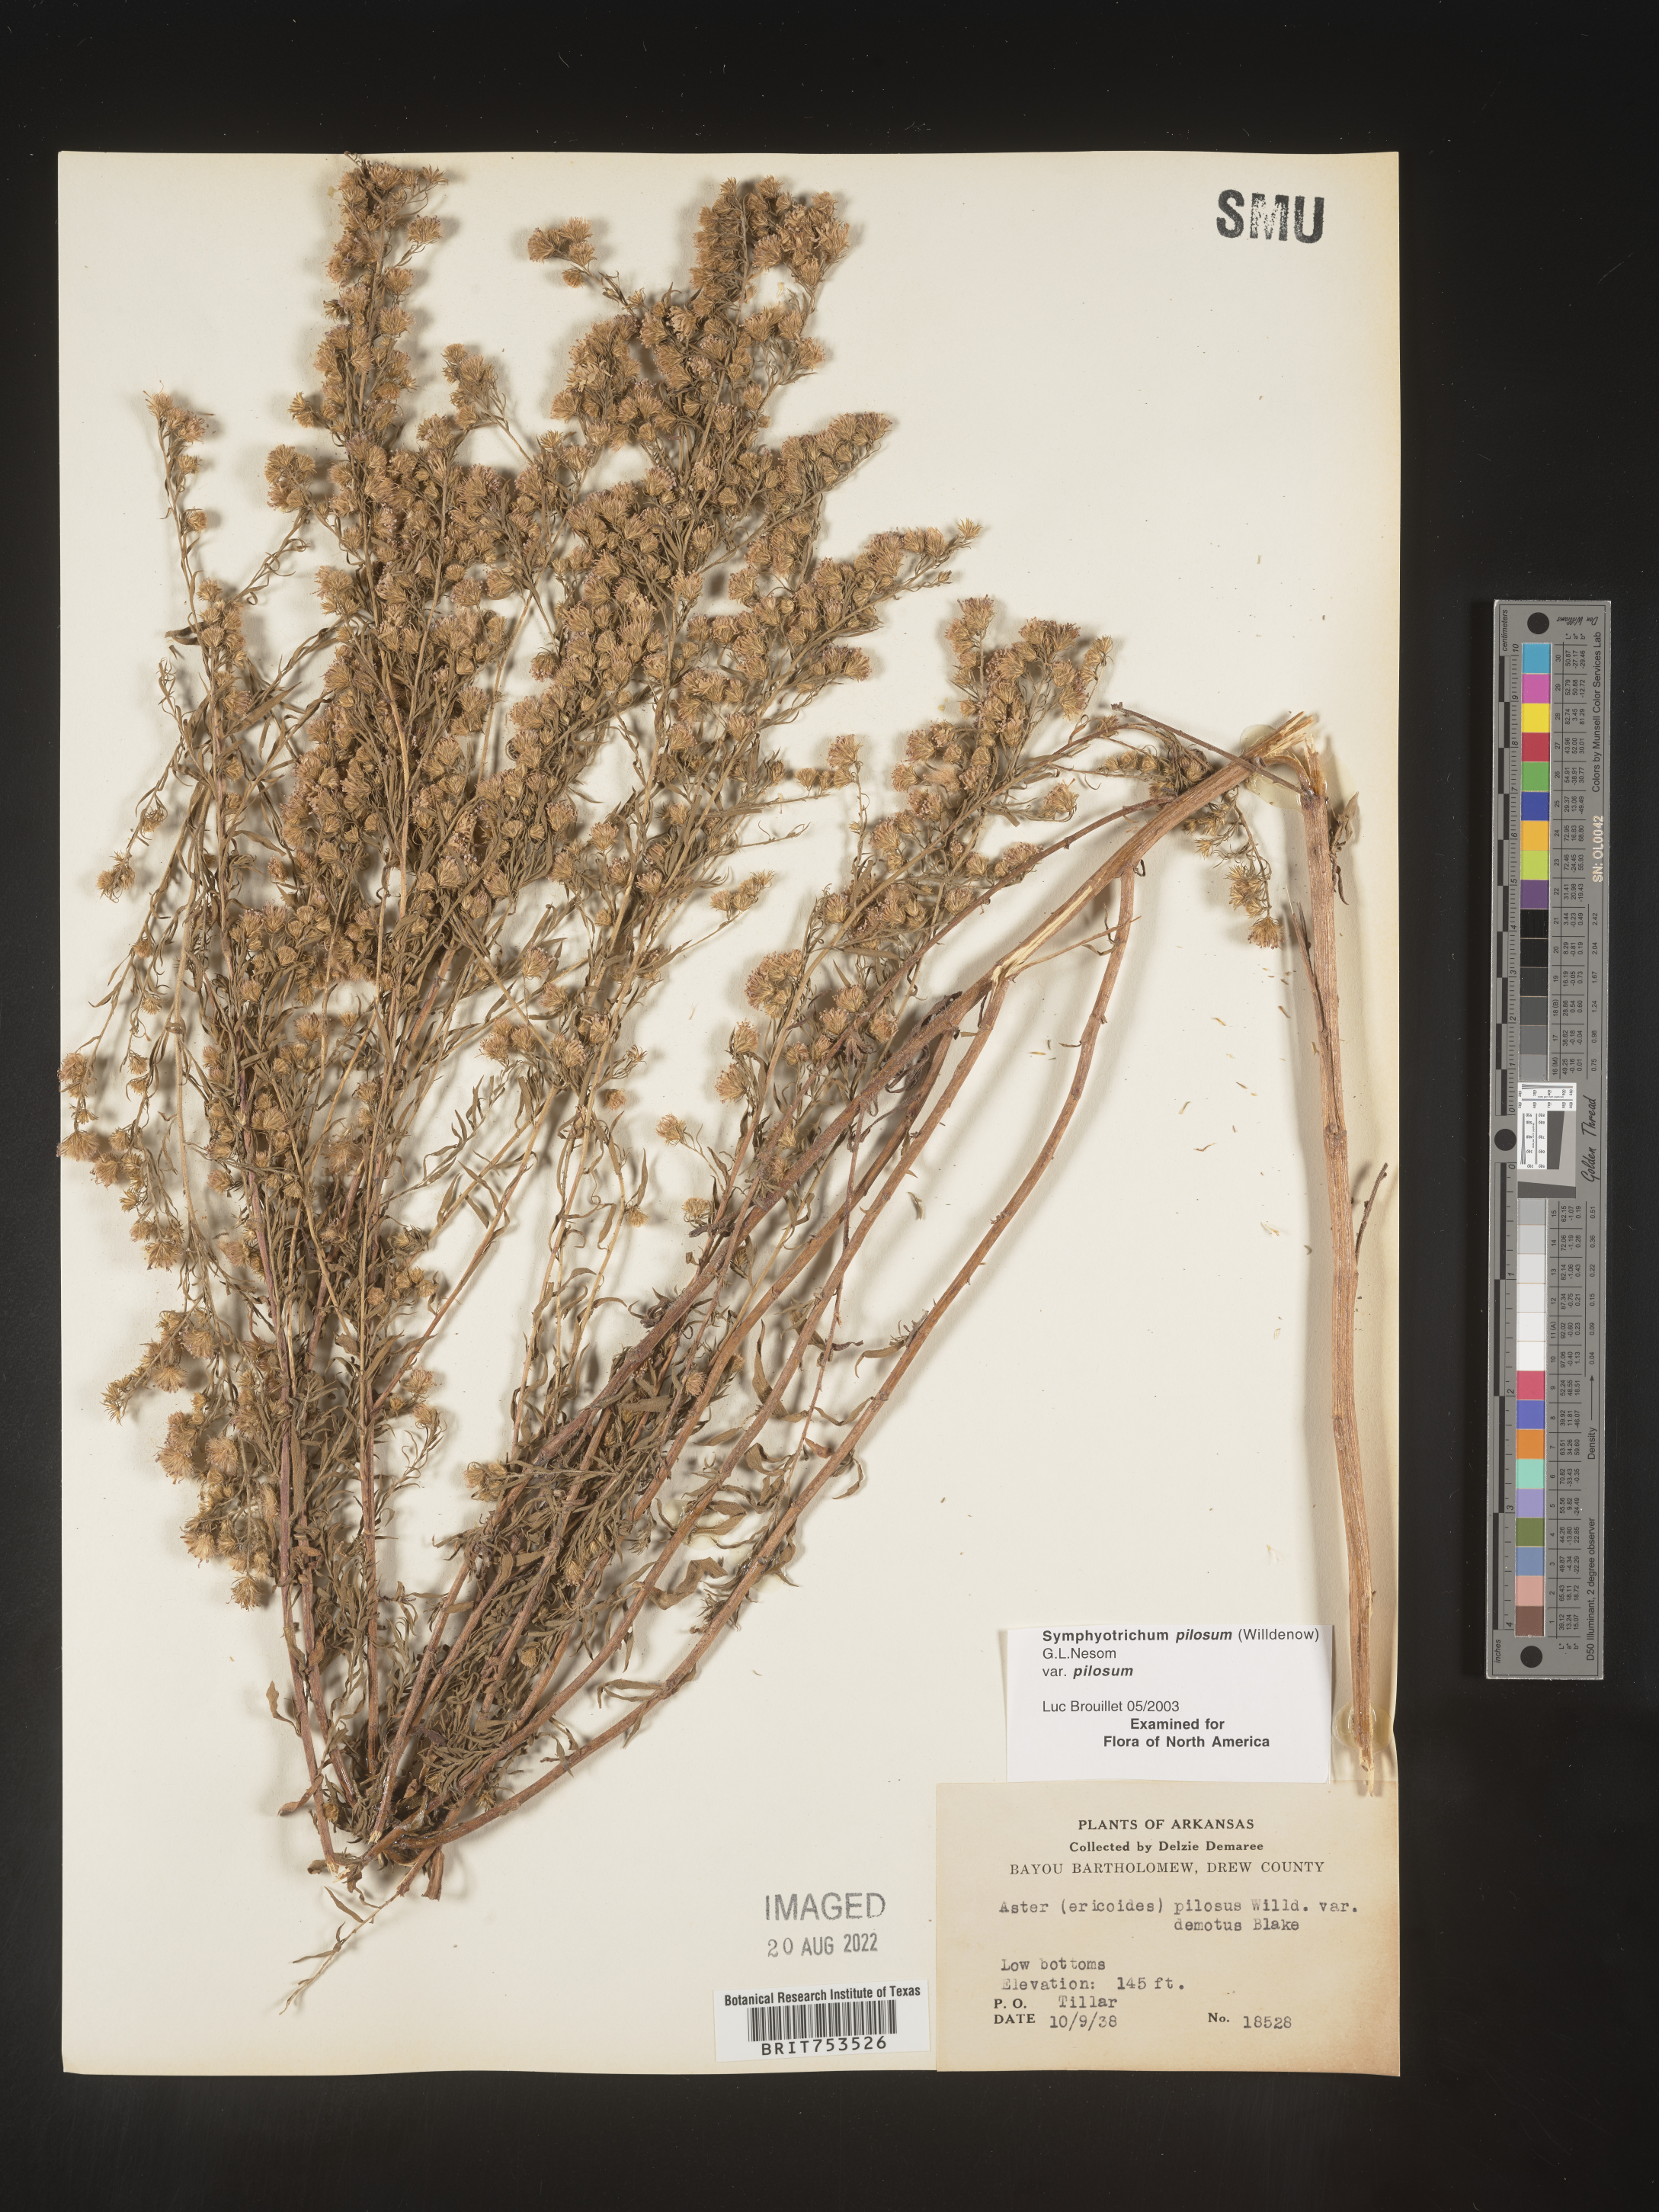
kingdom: Plantae
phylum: Tracheophyta
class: Magnoliopsida
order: Asterales
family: Asteraceae
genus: Symphyotrichum
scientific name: Symphyotrichum pilosum
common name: Awl aster
